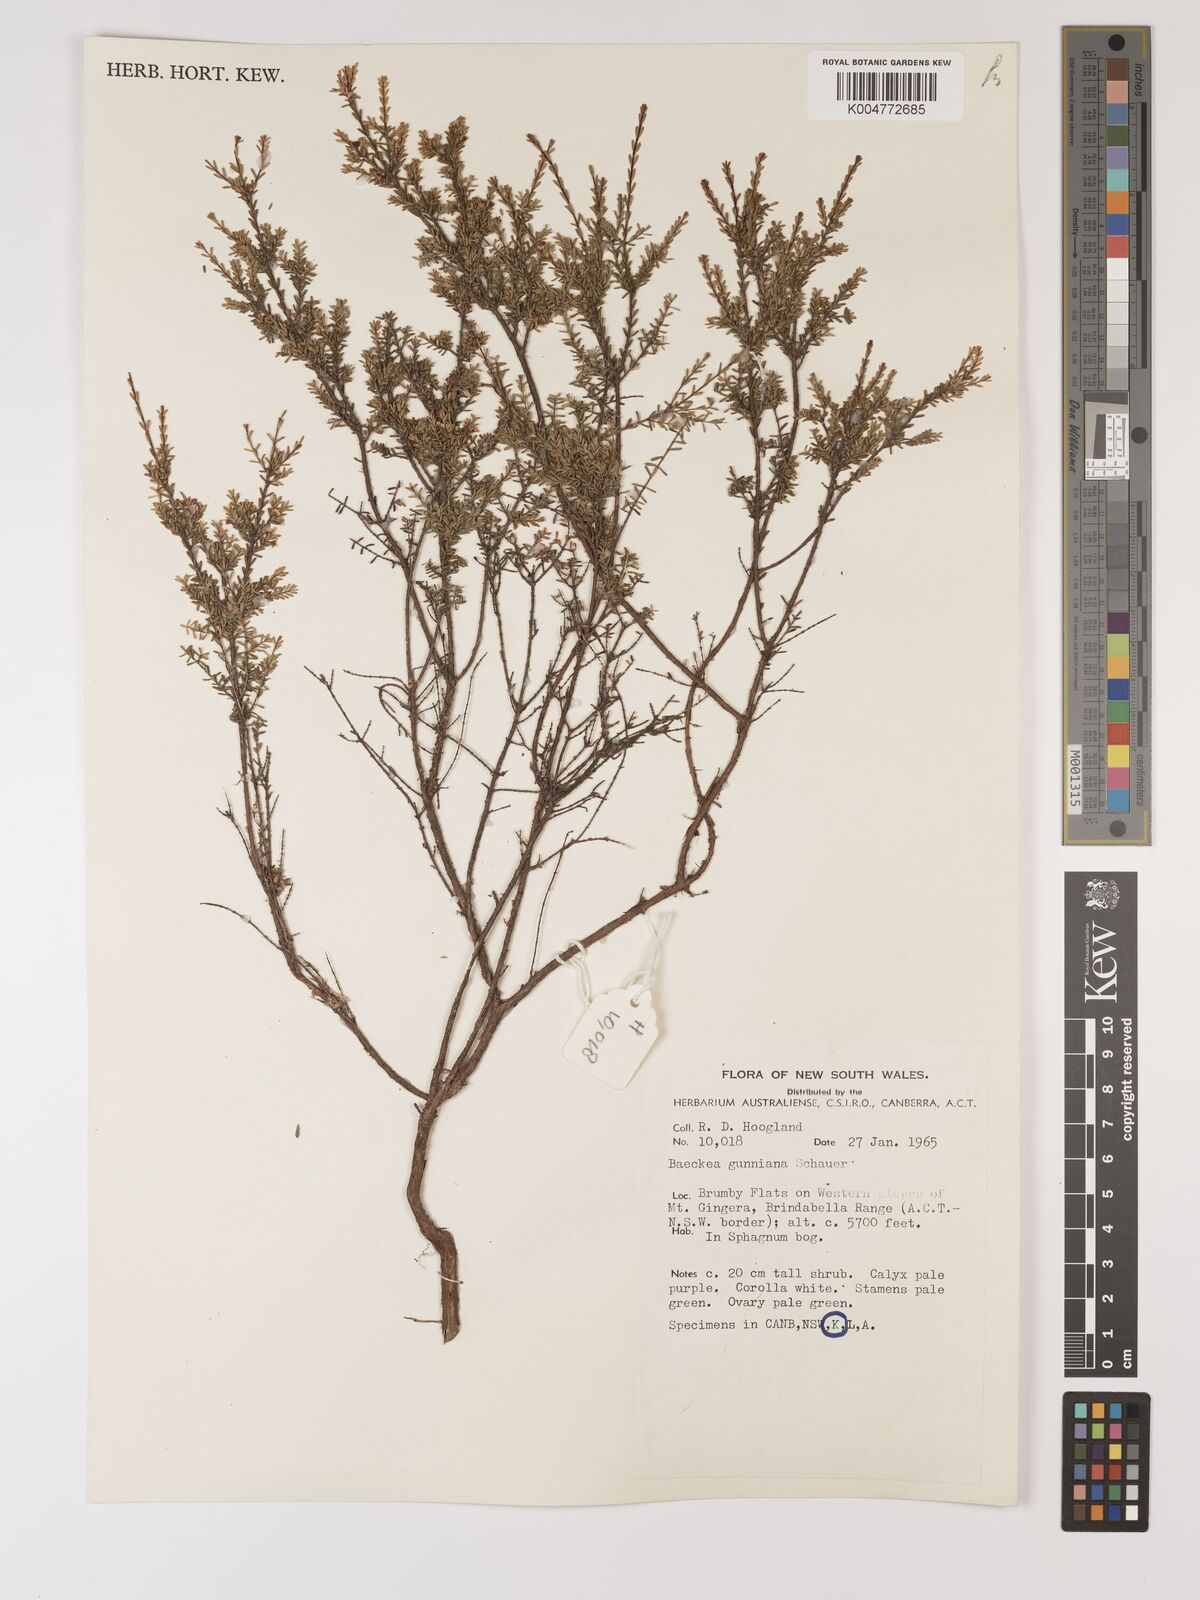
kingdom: Plantae
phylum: Tracheophyta
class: Magnoliopsida
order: Myrtales
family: Myrtaceae
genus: Baeckea
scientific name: Baeckea gunniana
